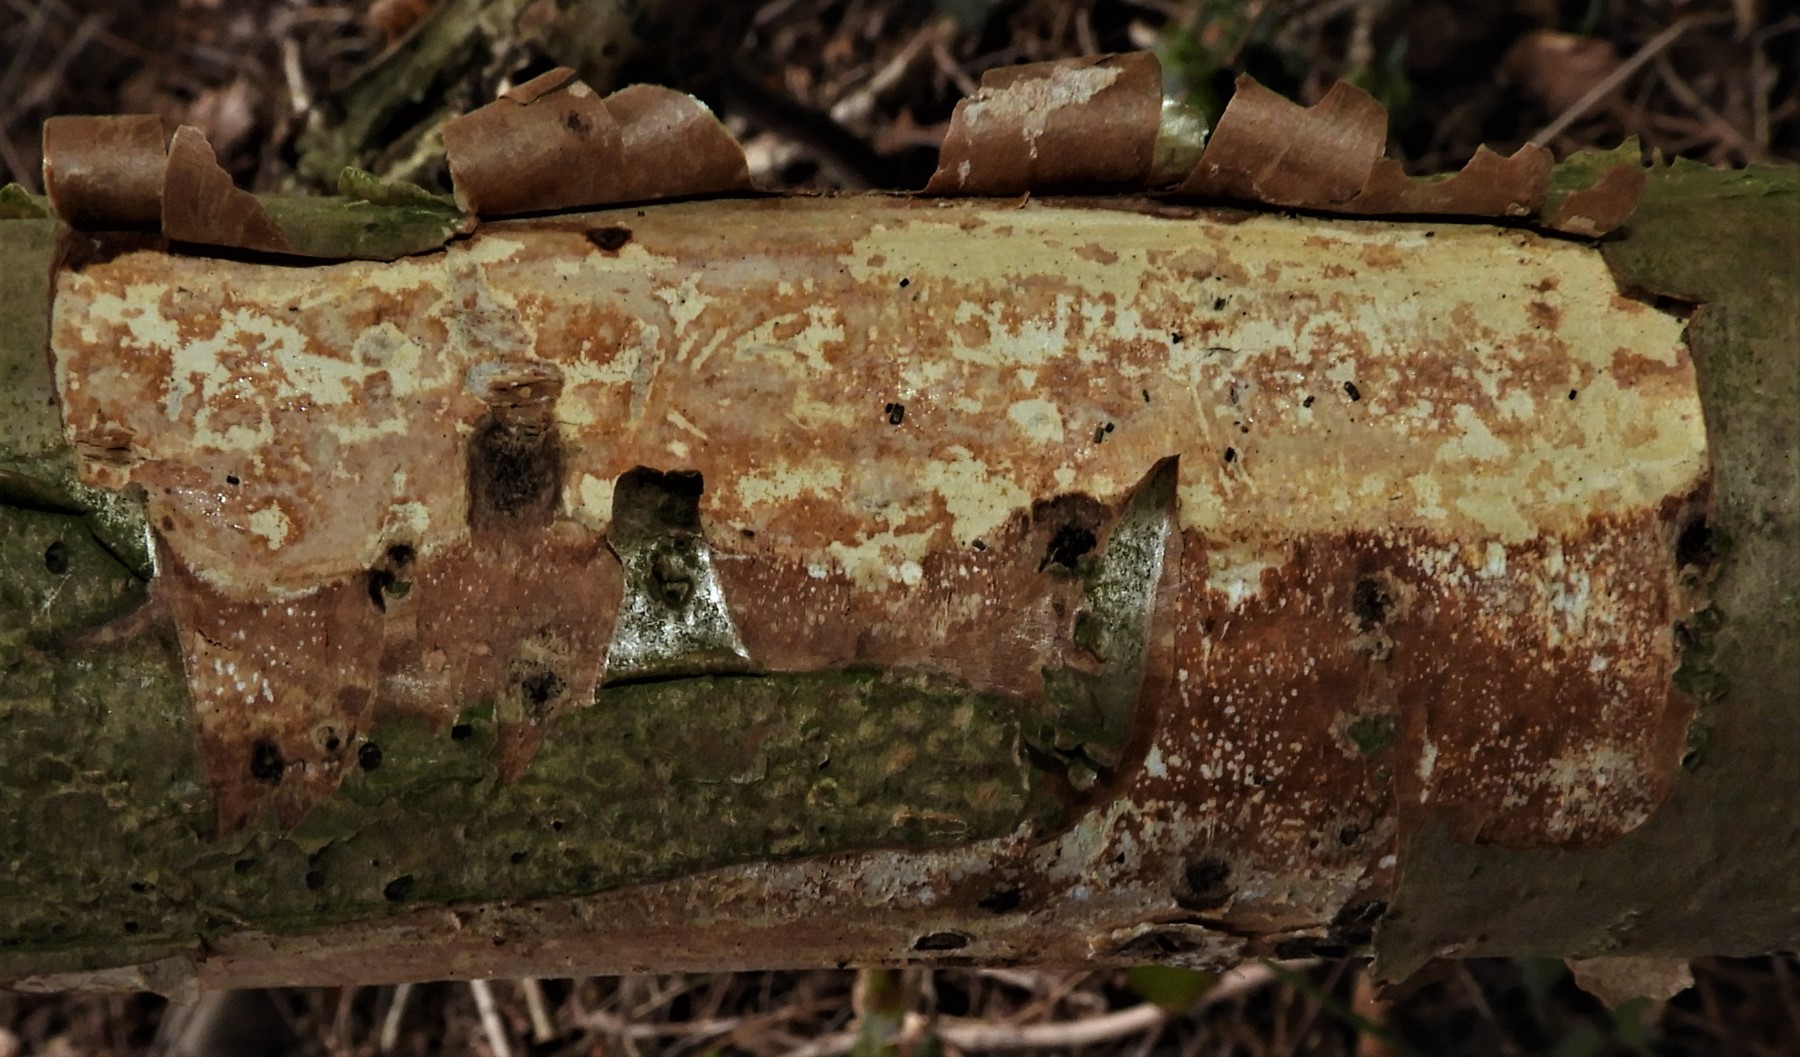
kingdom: Fungi
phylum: Basidiomycota
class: Agaricomycetes
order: Corticiales
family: Vuilleminiaceae
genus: Vuilleminia
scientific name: Vuilleminia coryli
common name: hassel-barksprænger
